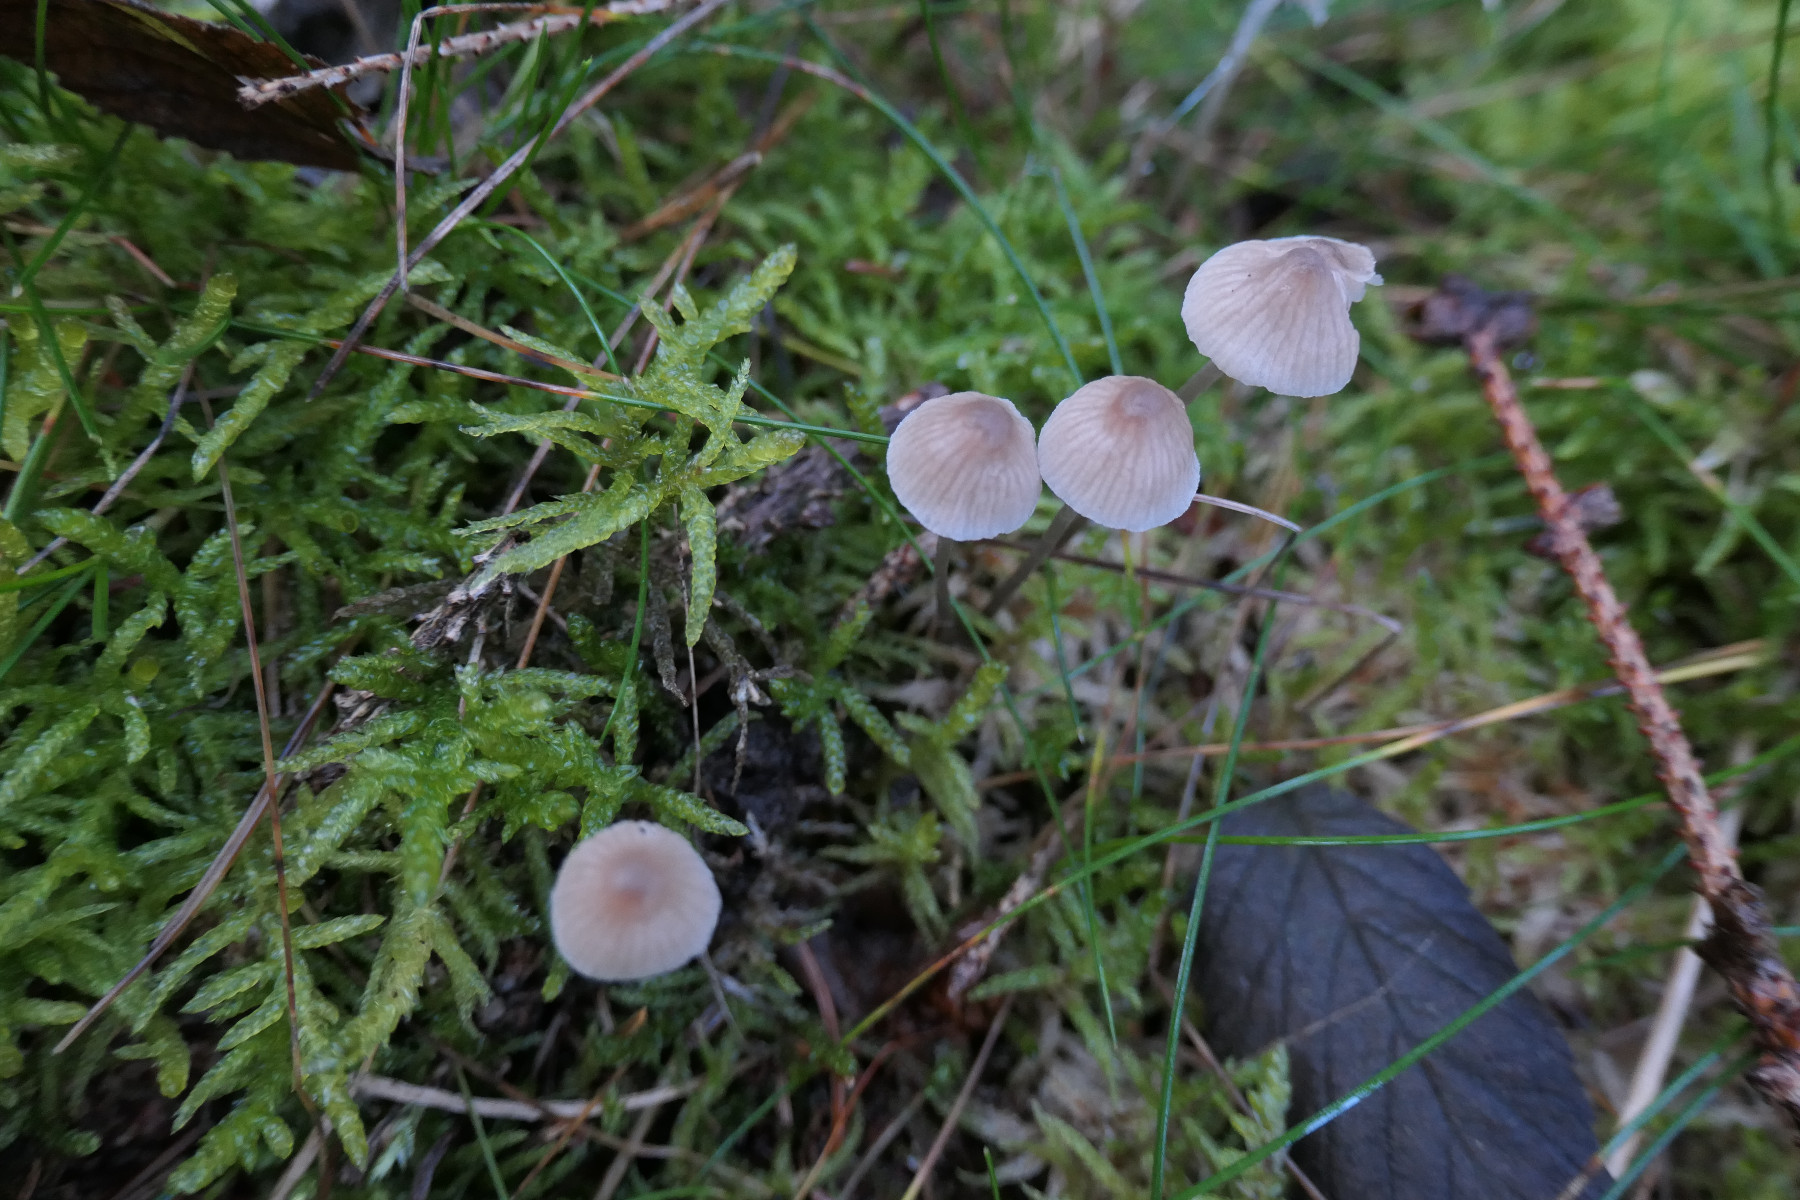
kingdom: Fungi
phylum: Basidiomycota
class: Agaricomycetes
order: Agaricales
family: Mycenaceae
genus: Mycena
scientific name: Mycena metata
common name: rødlig huesvamp
